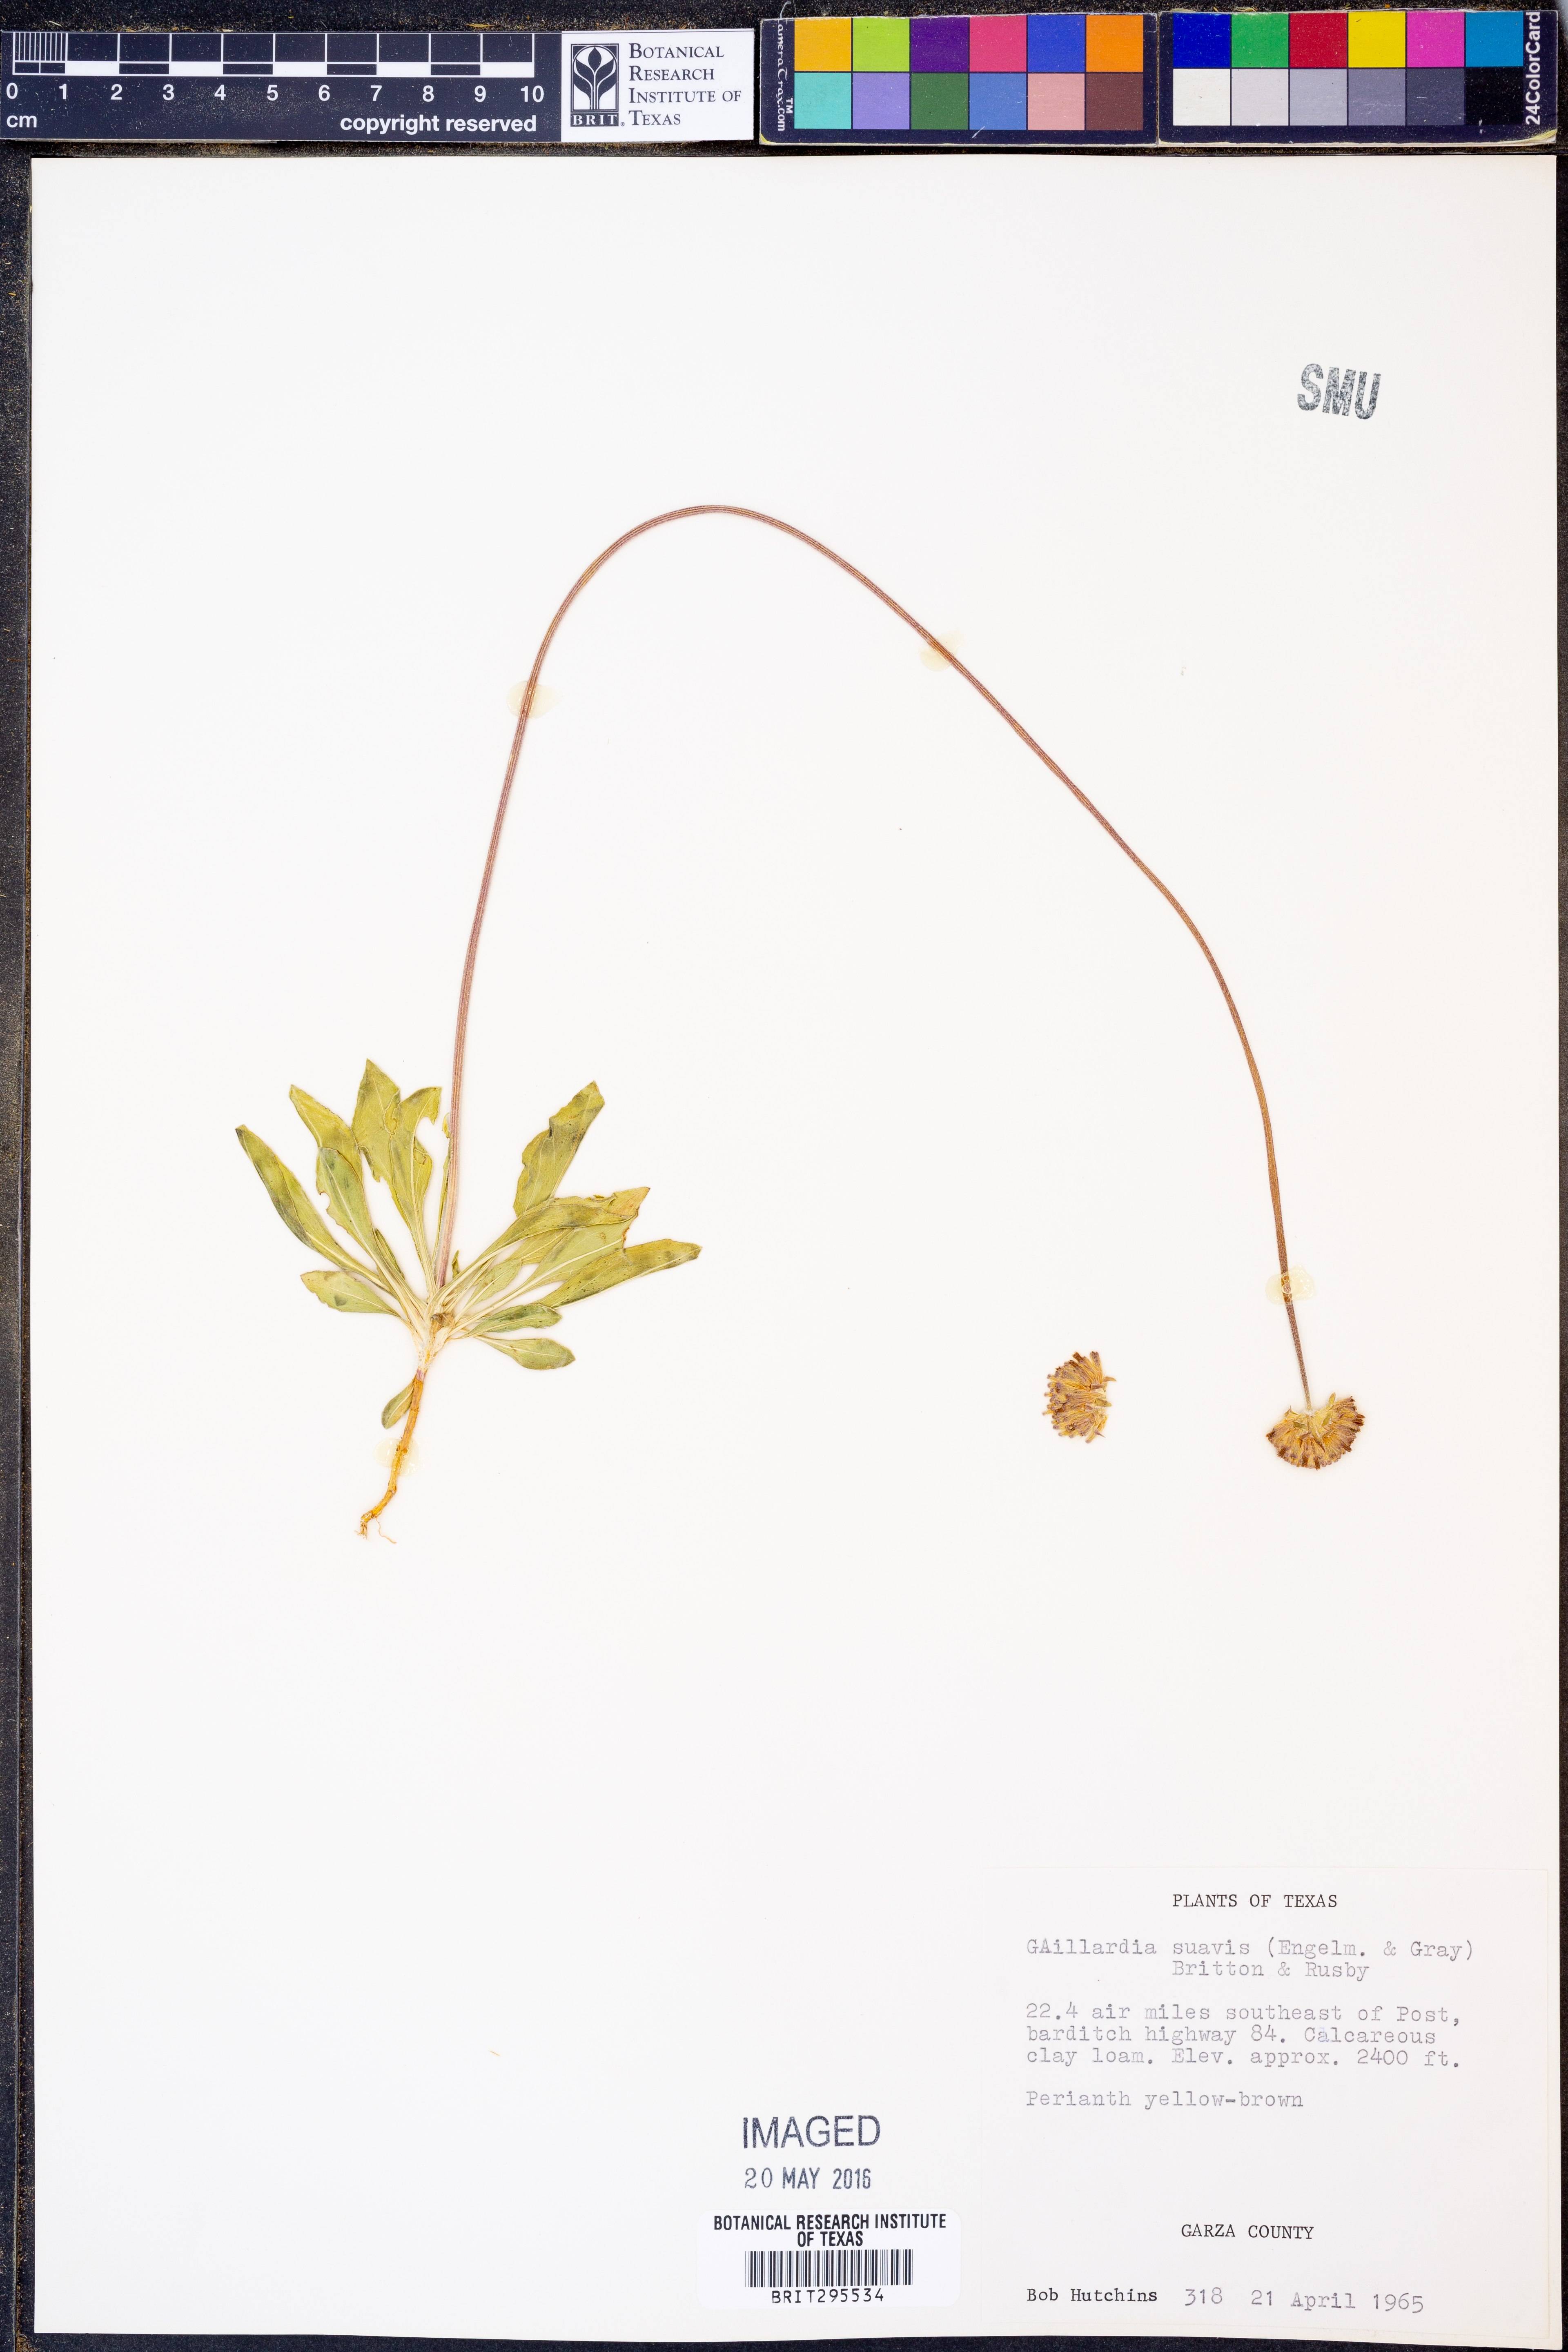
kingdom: Plantae
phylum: Tracheophyta
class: Magnoliopsida
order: Asterales
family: Asteraceae
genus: Gaillardia
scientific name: Gaillardia suavis
